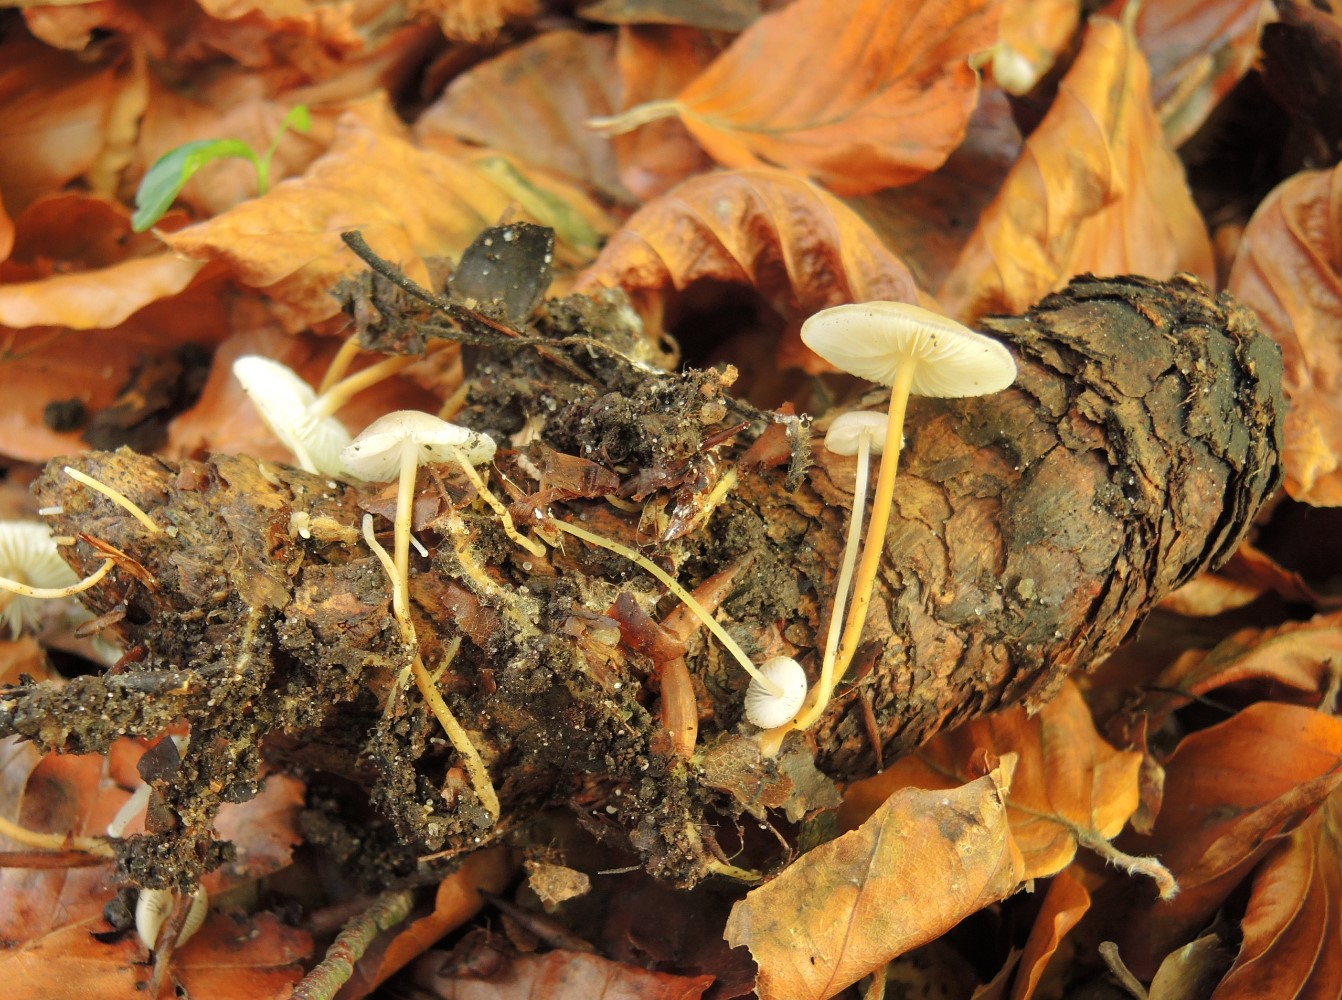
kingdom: Fungi
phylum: Basidiomycota
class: Agaricomycetes
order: Agaricales
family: Physalacriaceae
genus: Strobilurus
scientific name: Strobilurus esculentus
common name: gran-koglehat
